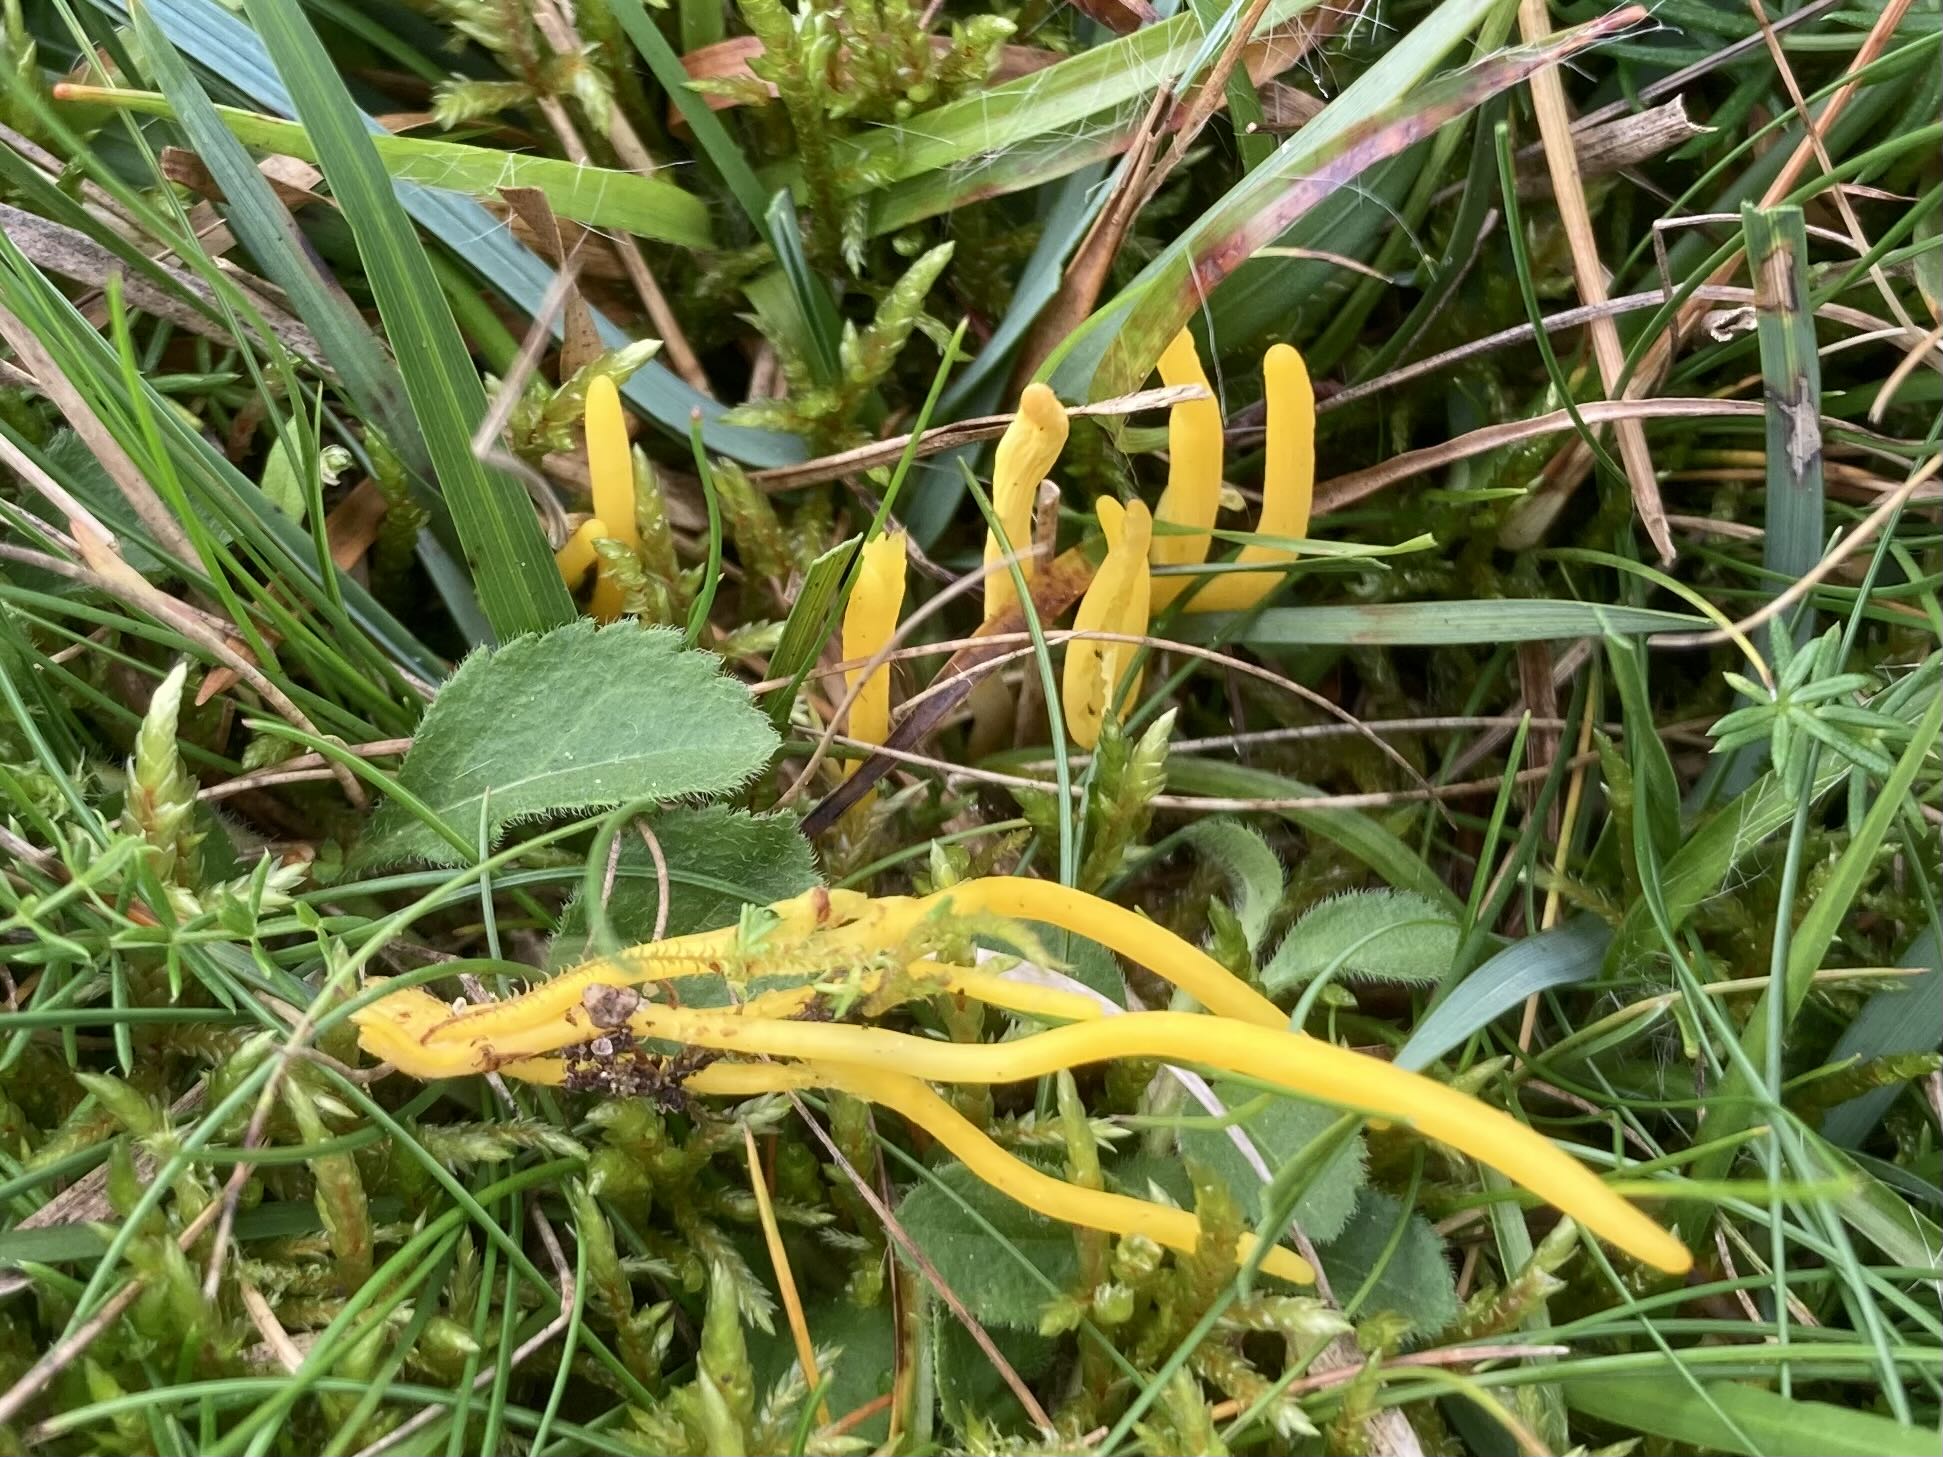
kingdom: Fungi
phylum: Basidiomycota
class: Agaricomycetes
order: Agaricales
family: Clavariaceae
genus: Clavulinopsis
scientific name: Clavulinopsis
